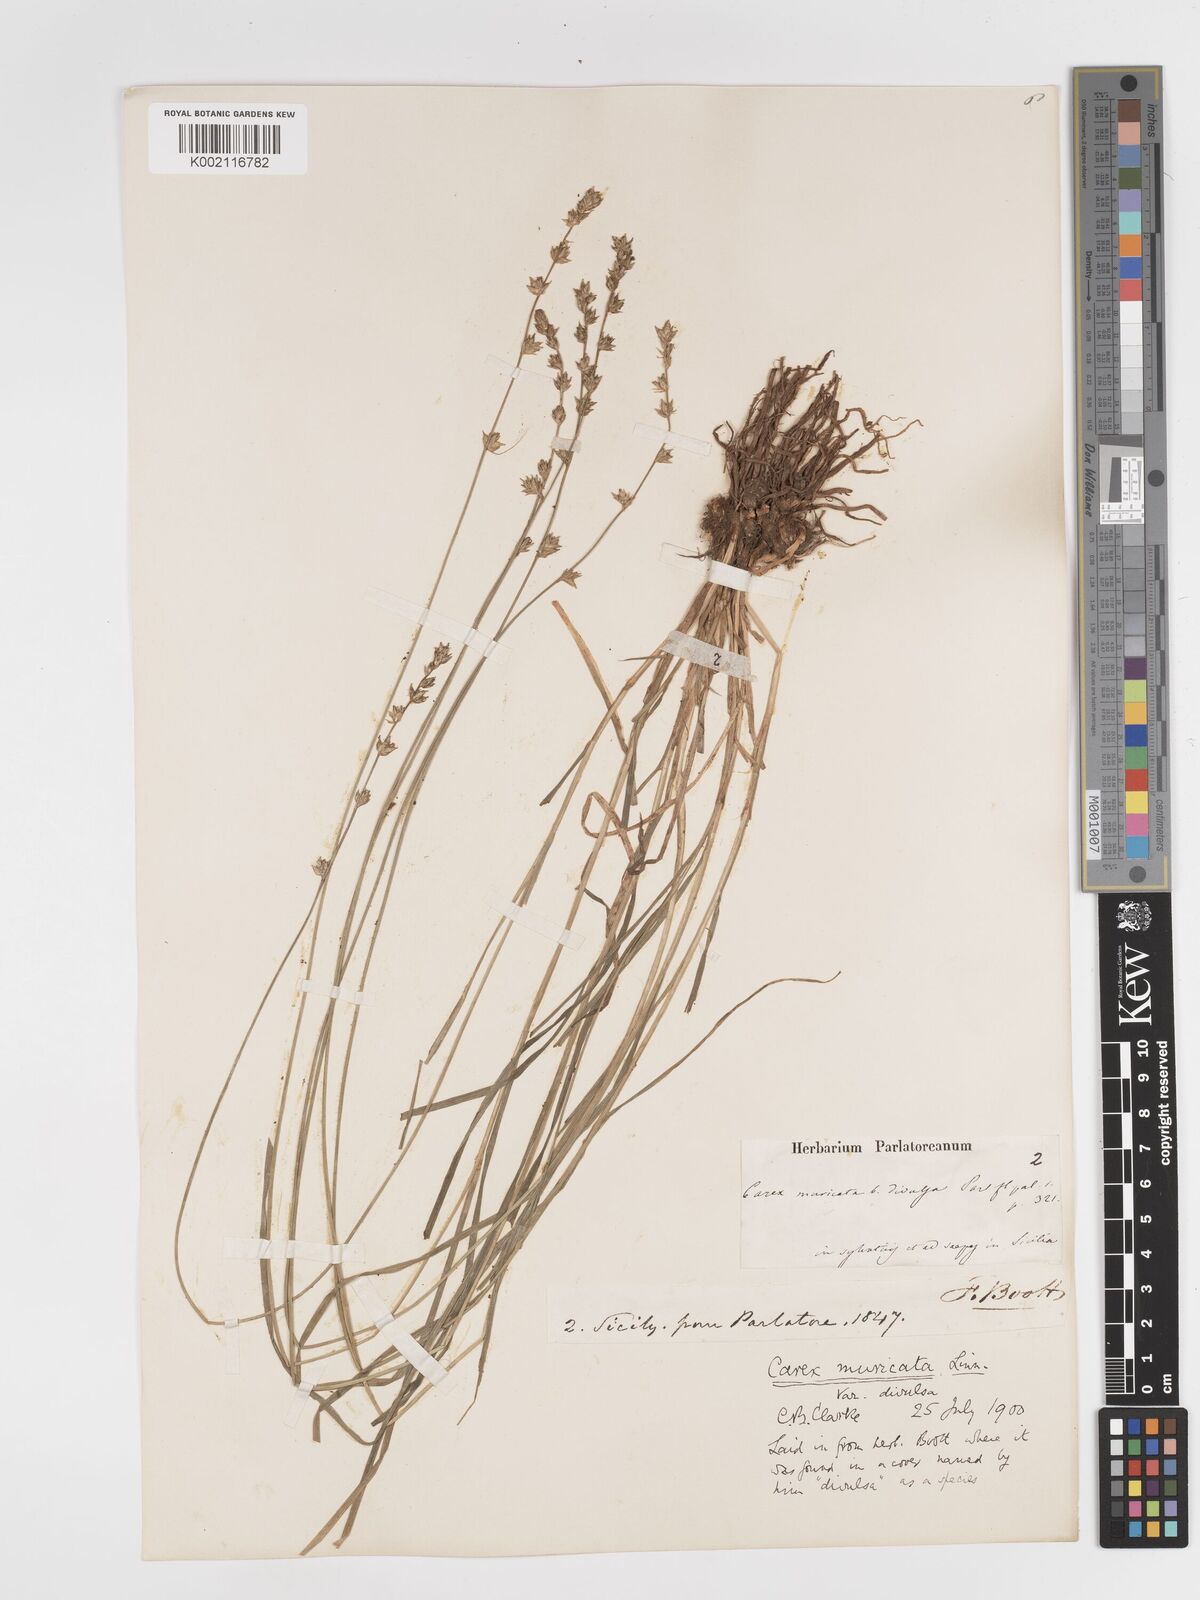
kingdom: Plantae
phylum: Tracheophyta
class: Liliopsida
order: Poales
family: Cyperaceae
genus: Carex
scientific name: Carex divulsa
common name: Grassland sedge
